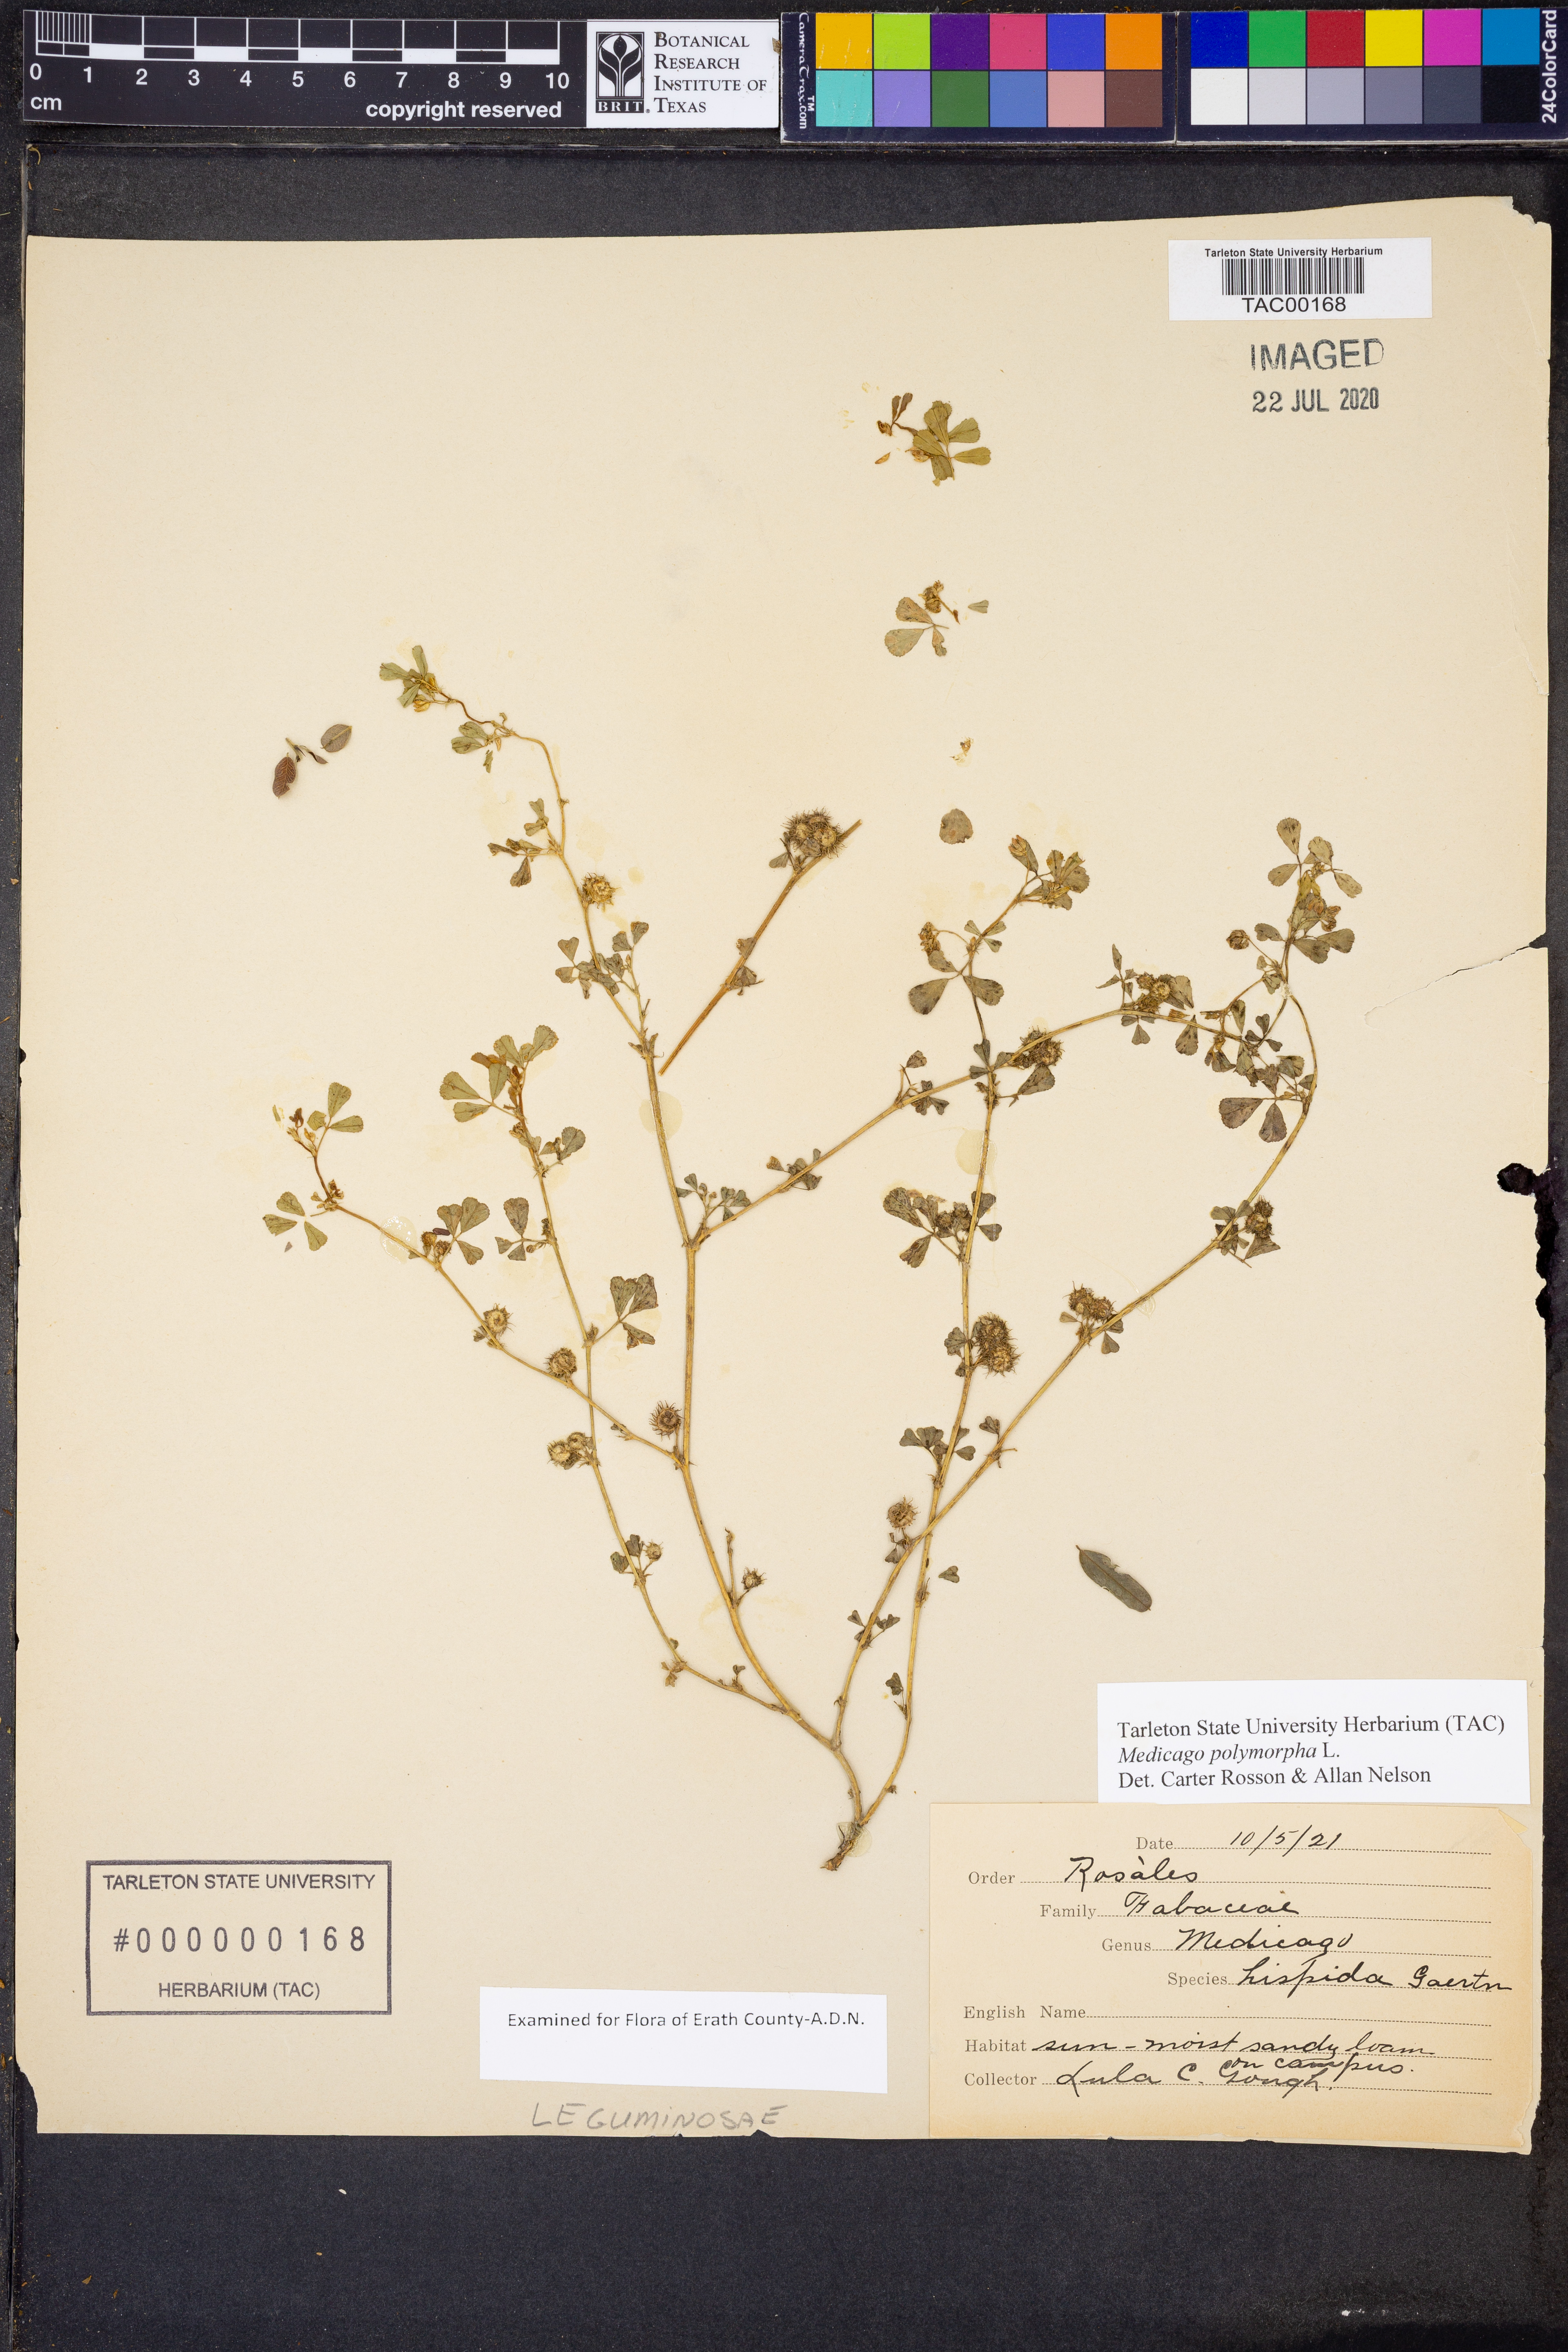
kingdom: Plantae
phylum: Tracheophyta
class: Magnoliopsida
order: Fabales
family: Fabaceae
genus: Medicago
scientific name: Medicago polymorpha
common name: Burclover
